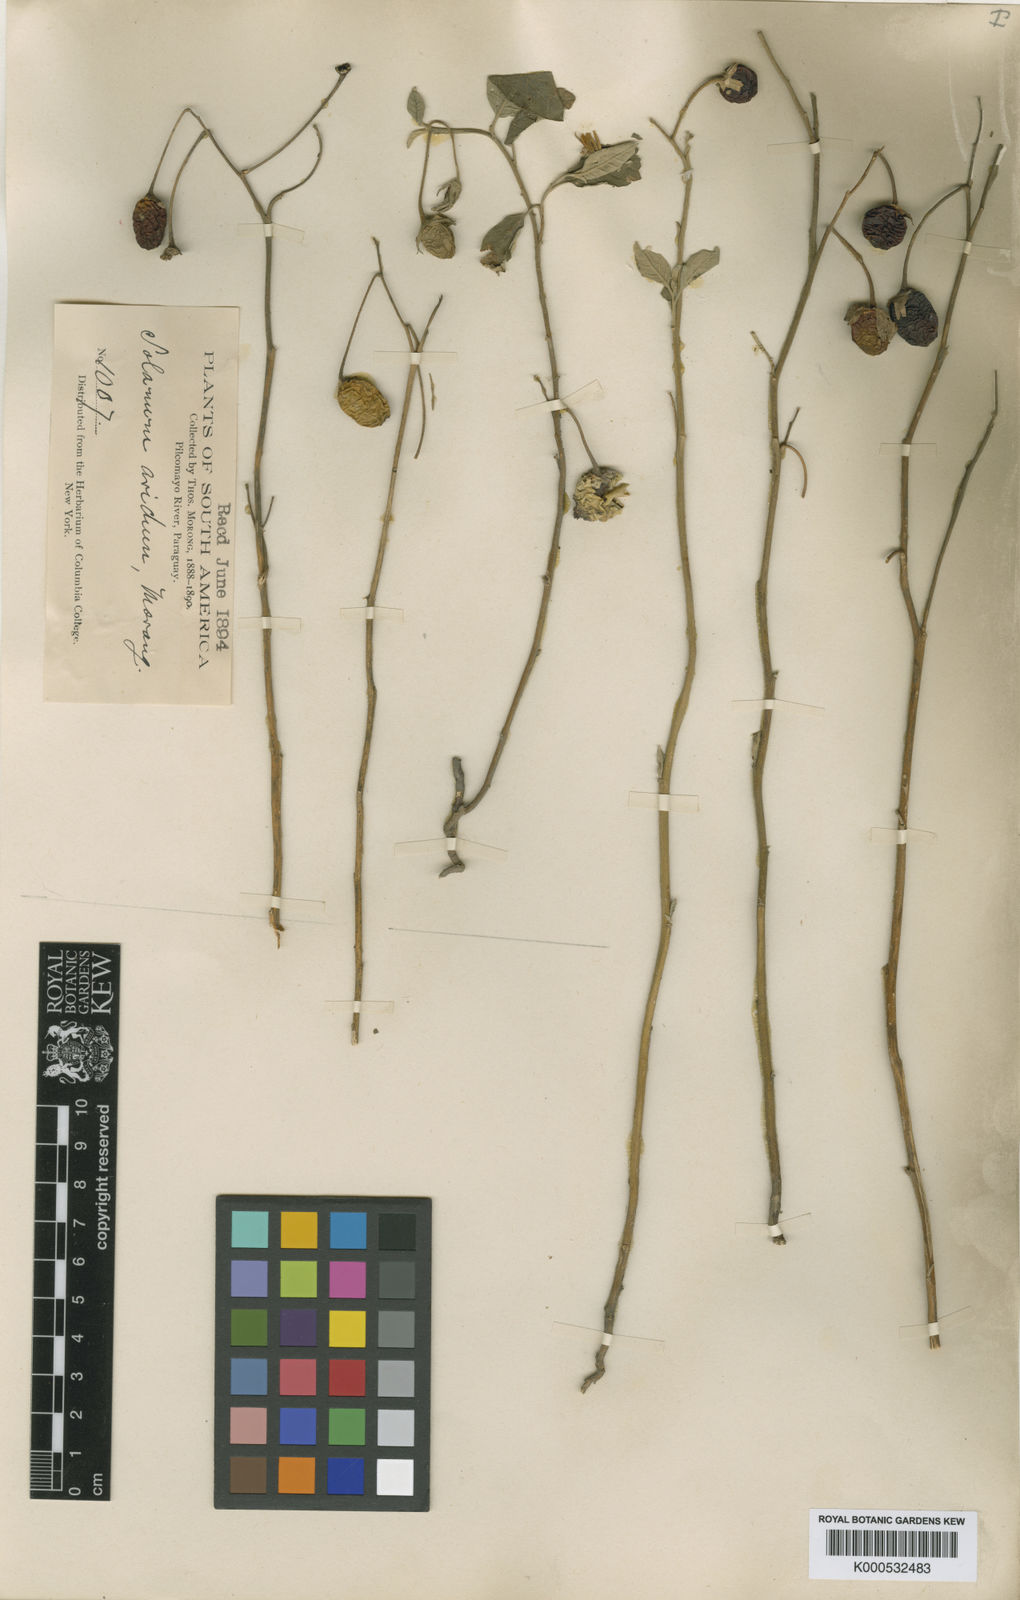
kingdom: Plantae
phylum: Tracheophyta
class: Magnoliopsida
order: Solanales
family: Solanaceae
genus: Solanum
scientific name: Solanum aridum
